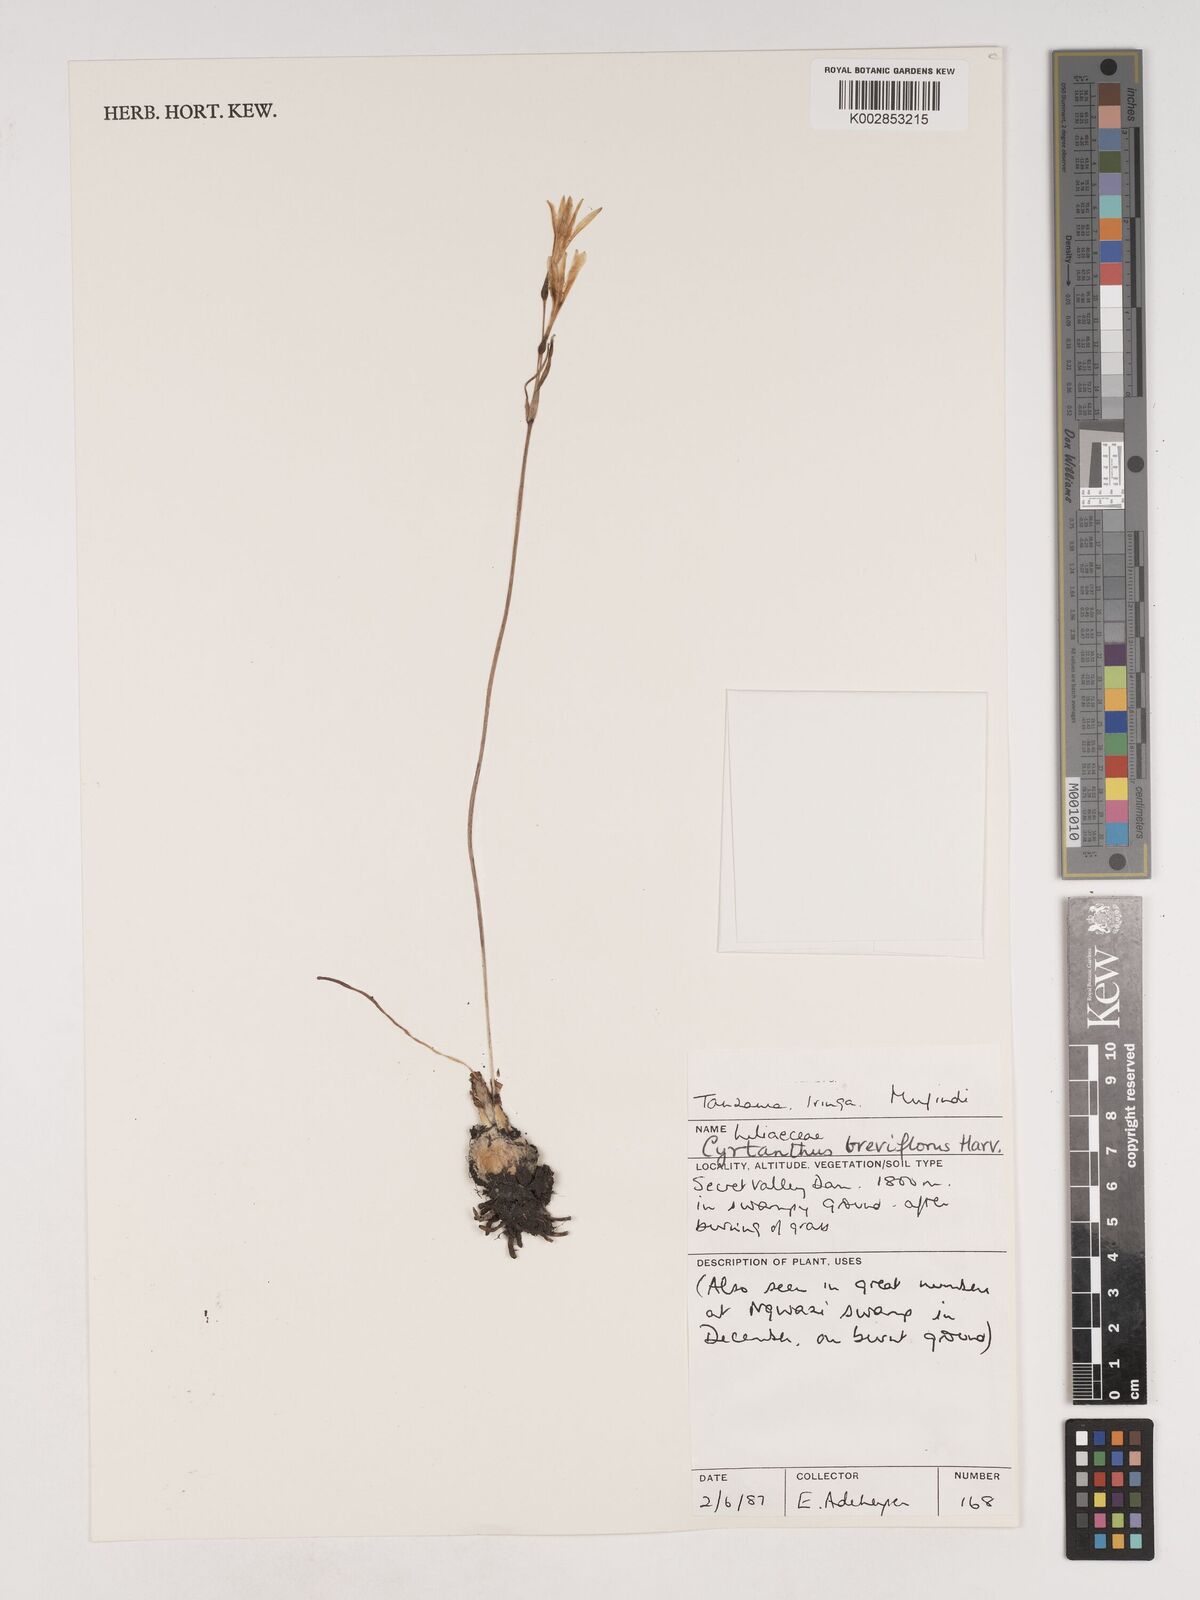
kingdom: Plantae
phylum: Tracheophyta
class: Liliopsida
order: Asparagales
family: Amaryllidaceae
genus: Cyrtanthus
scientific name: Cyrtanthus breviflorus
